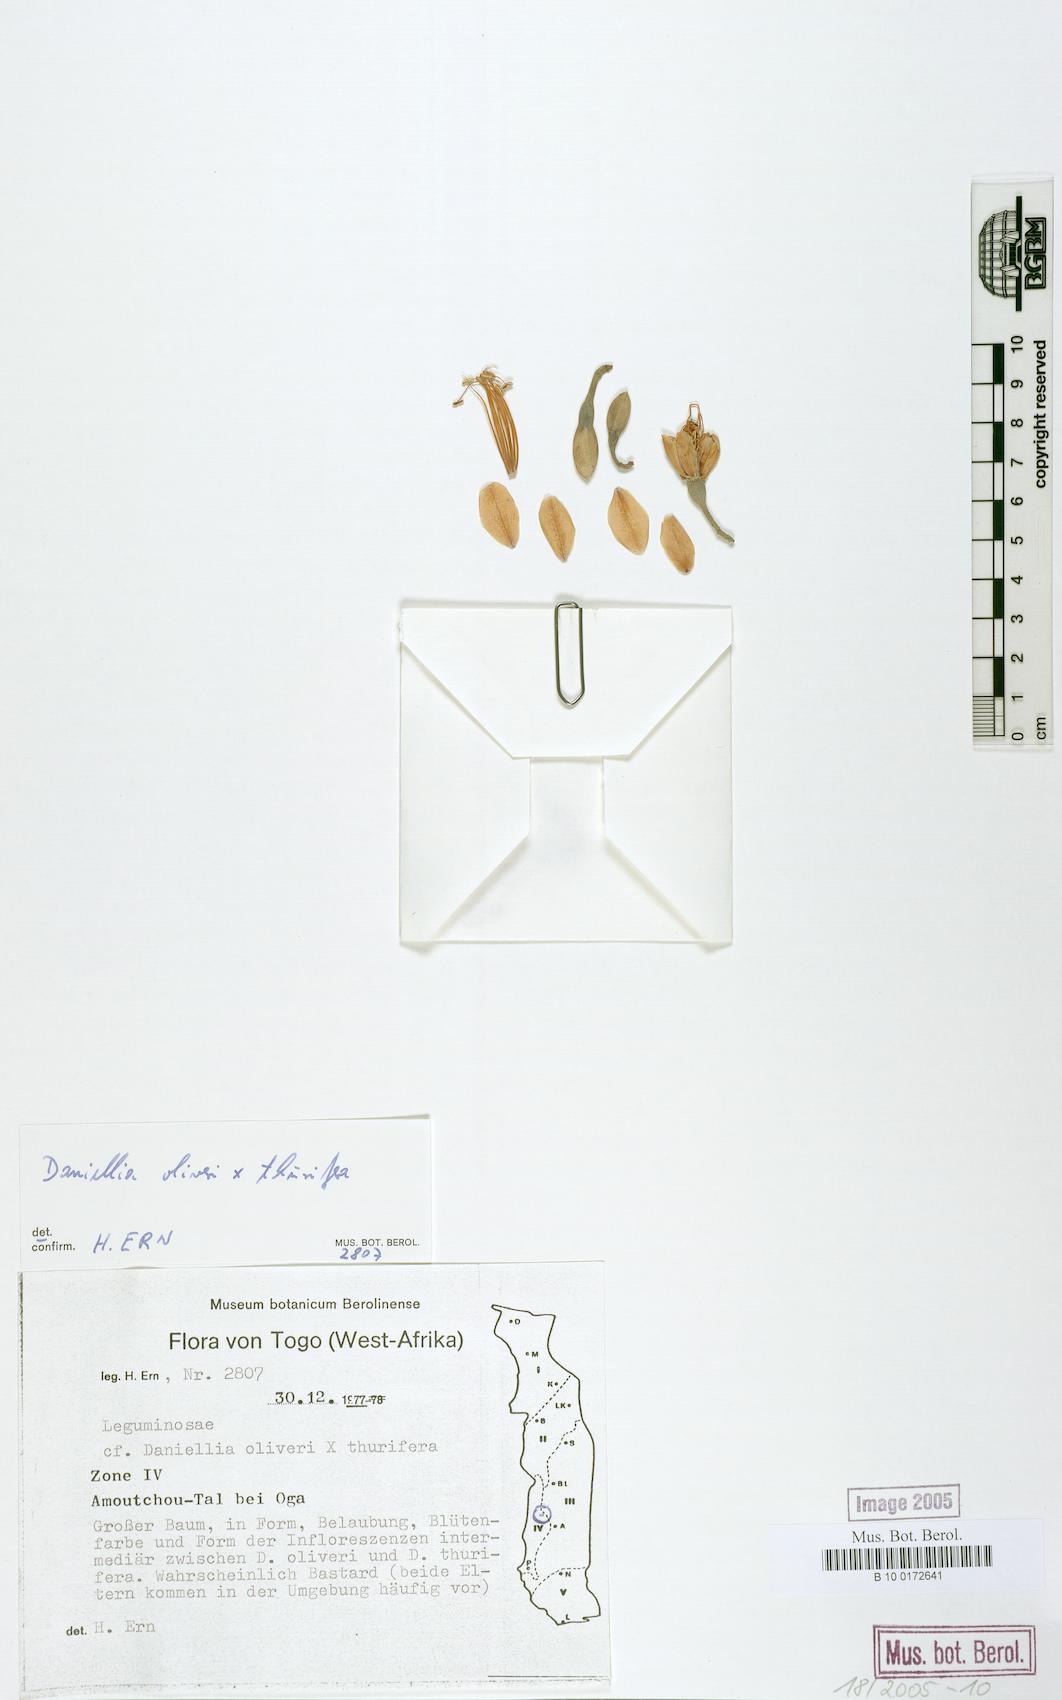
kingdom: Plantae
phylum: Tracheophyta
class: Magnoliopsida
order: Fabales
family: Fabaceae
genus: Daniellia
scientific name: Daniellia oliveri
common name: African copaiba balsamtree
